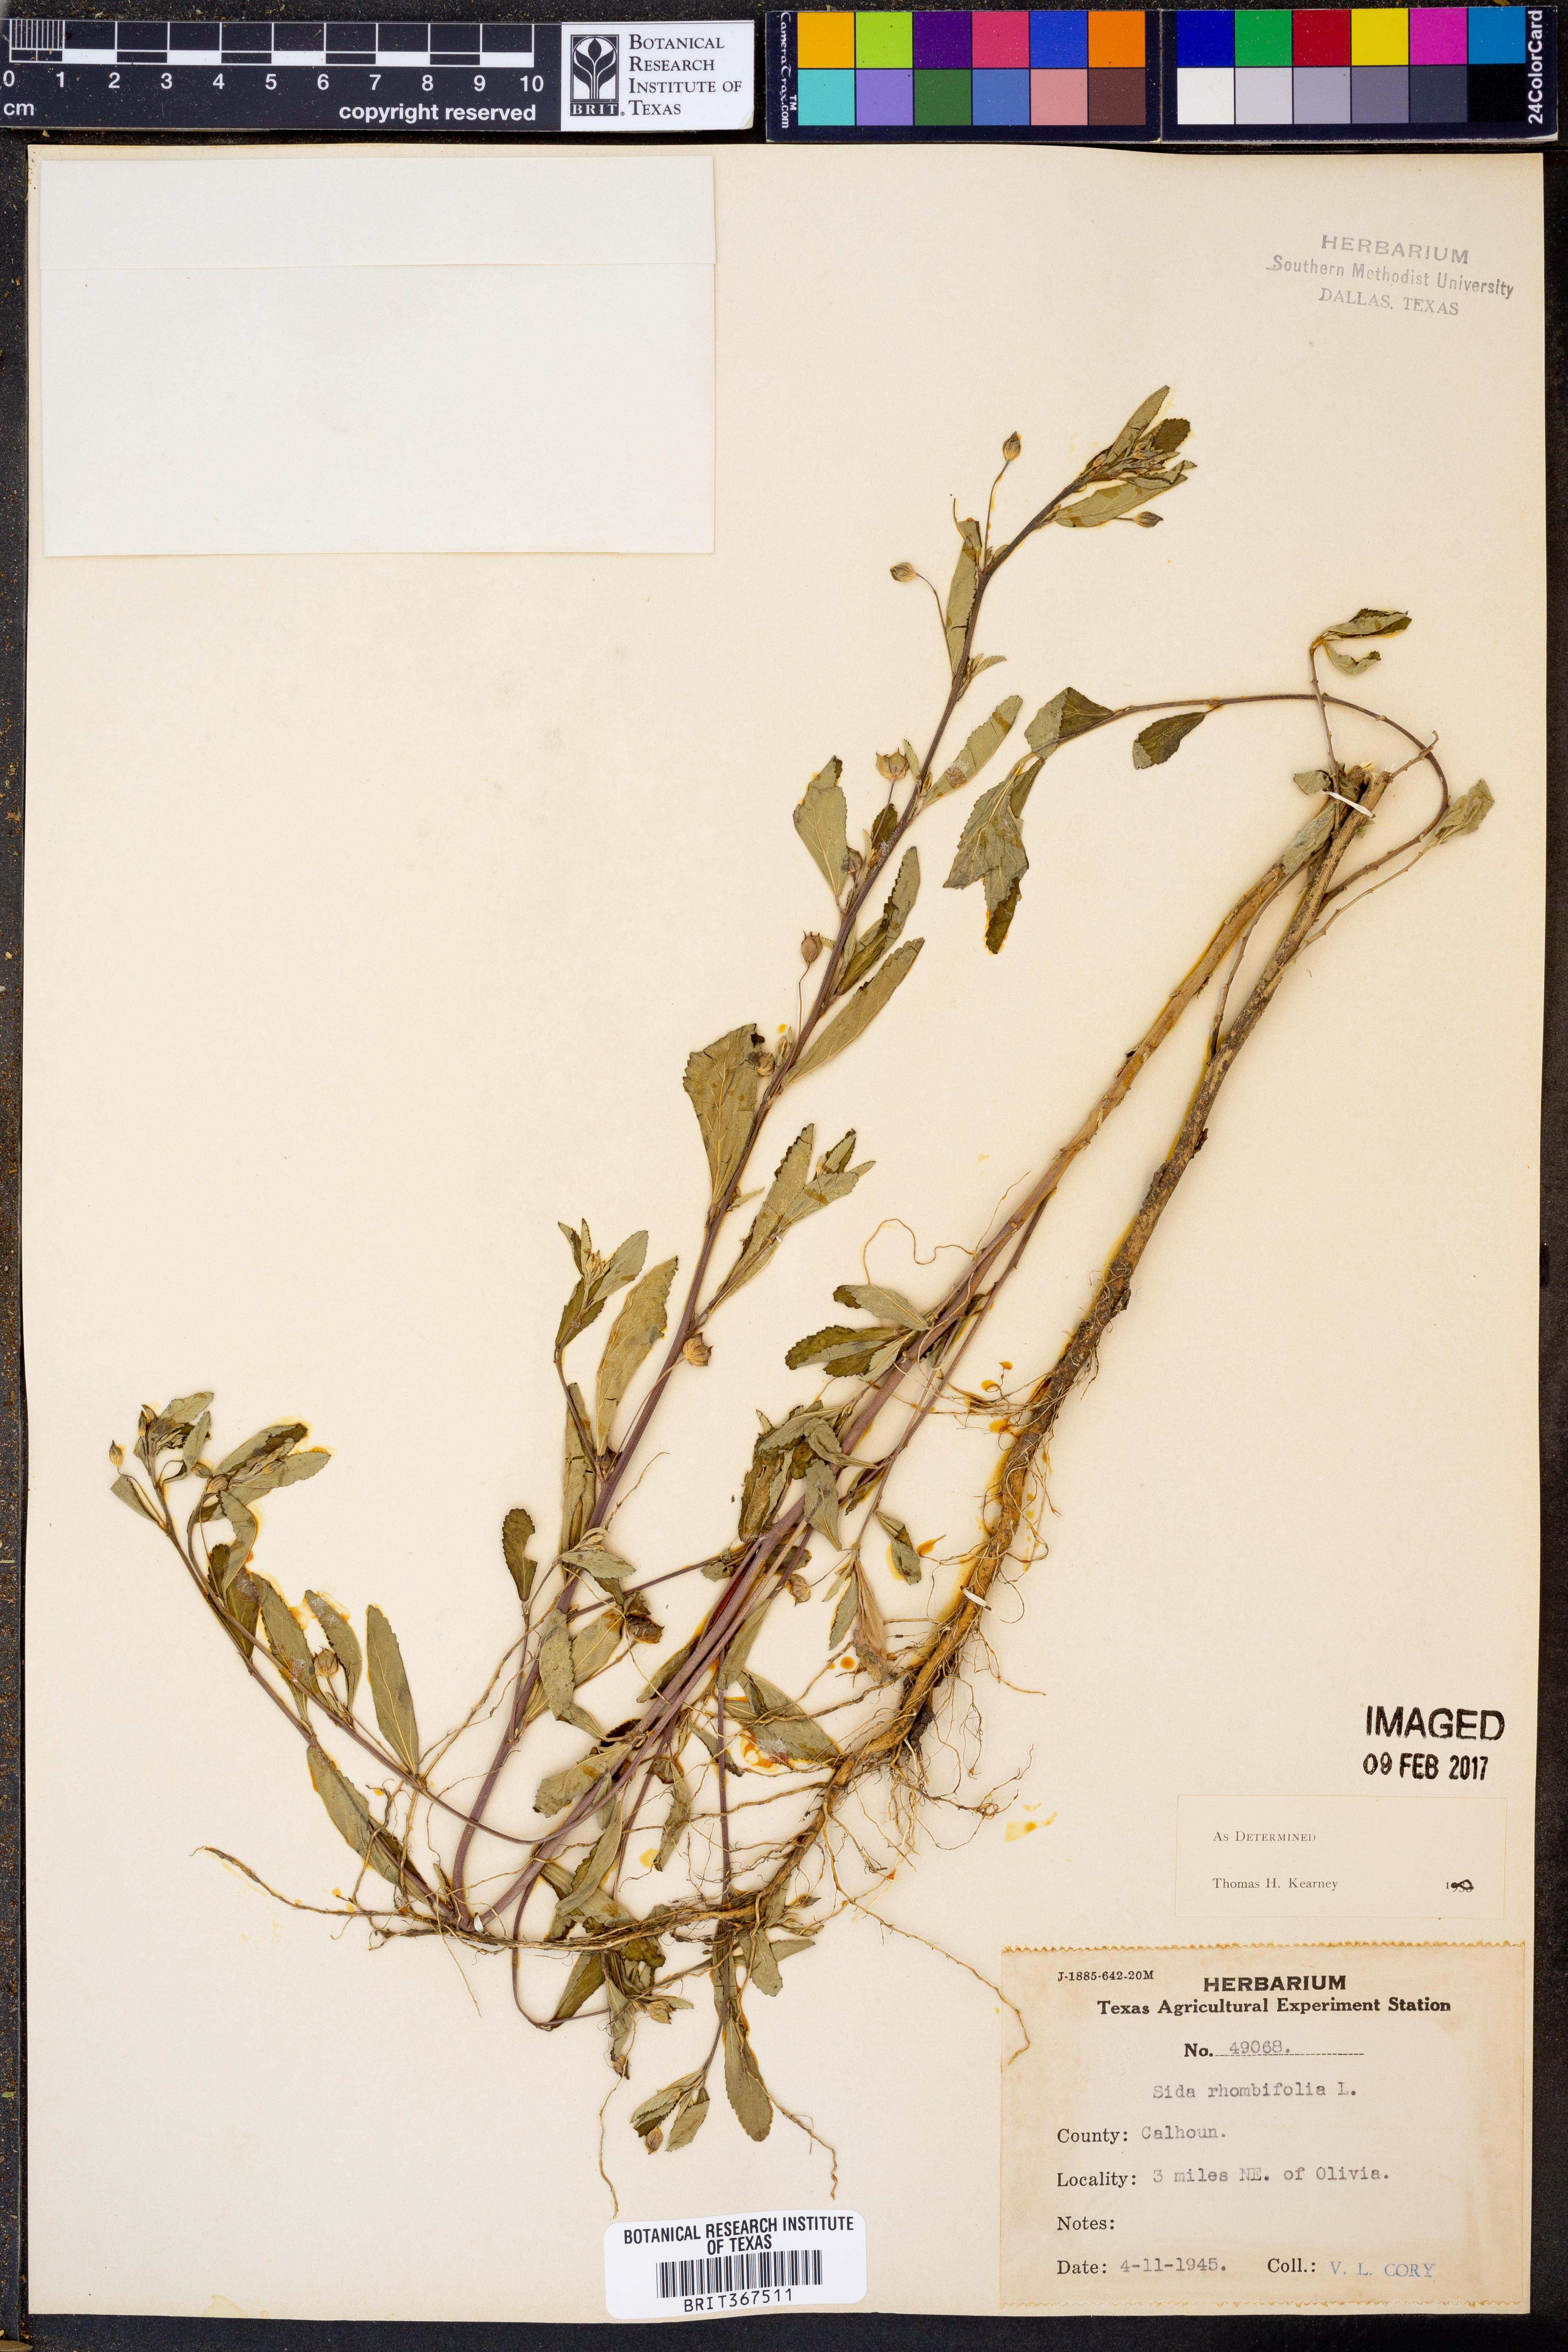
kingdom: Plantae
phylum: Tracheophyta
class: Magnoliopsida
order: Malvales
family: Malvaceae
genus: Sida
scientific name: Sida rhombifolia
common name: Queensland-hemp
